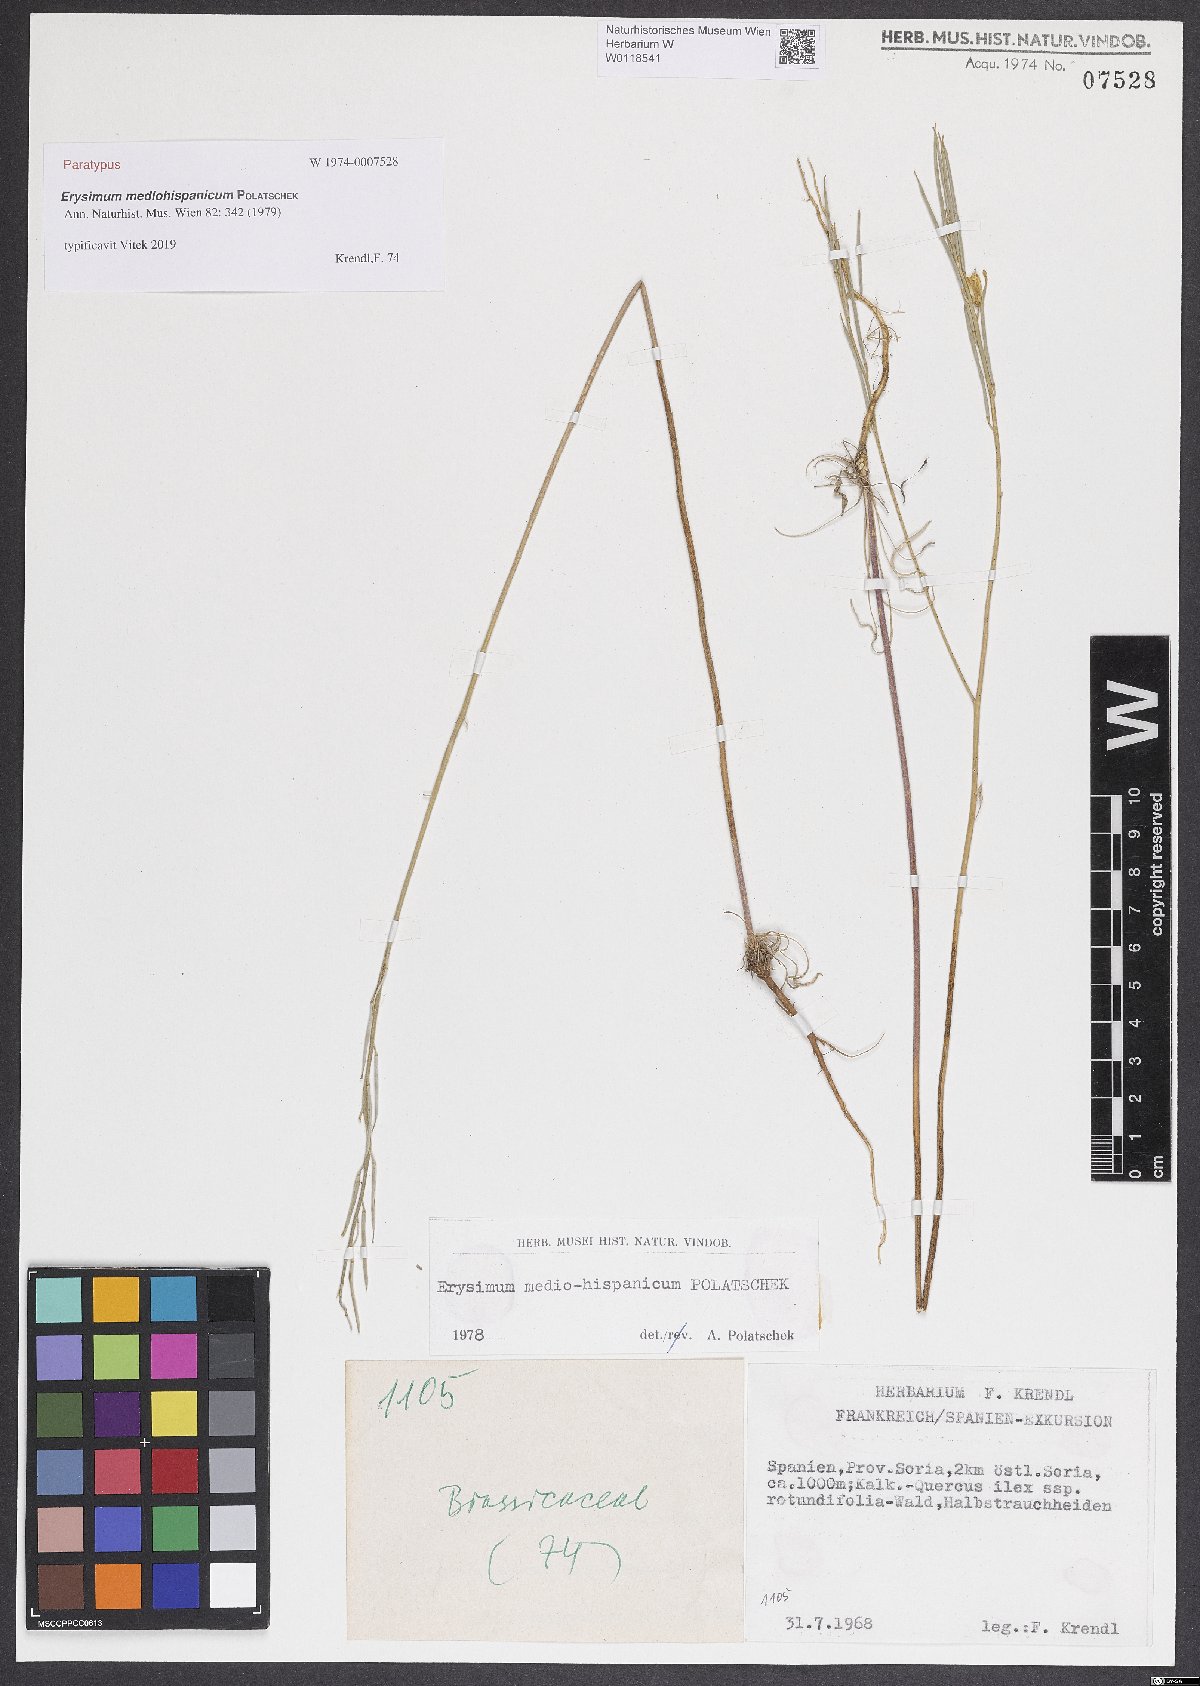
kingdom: Plantae
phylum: Tracheophyta
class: Magnoliopsida
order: Brassicales
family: Brassicaceae
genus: Erysimum
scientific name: Erysimum nevadense
